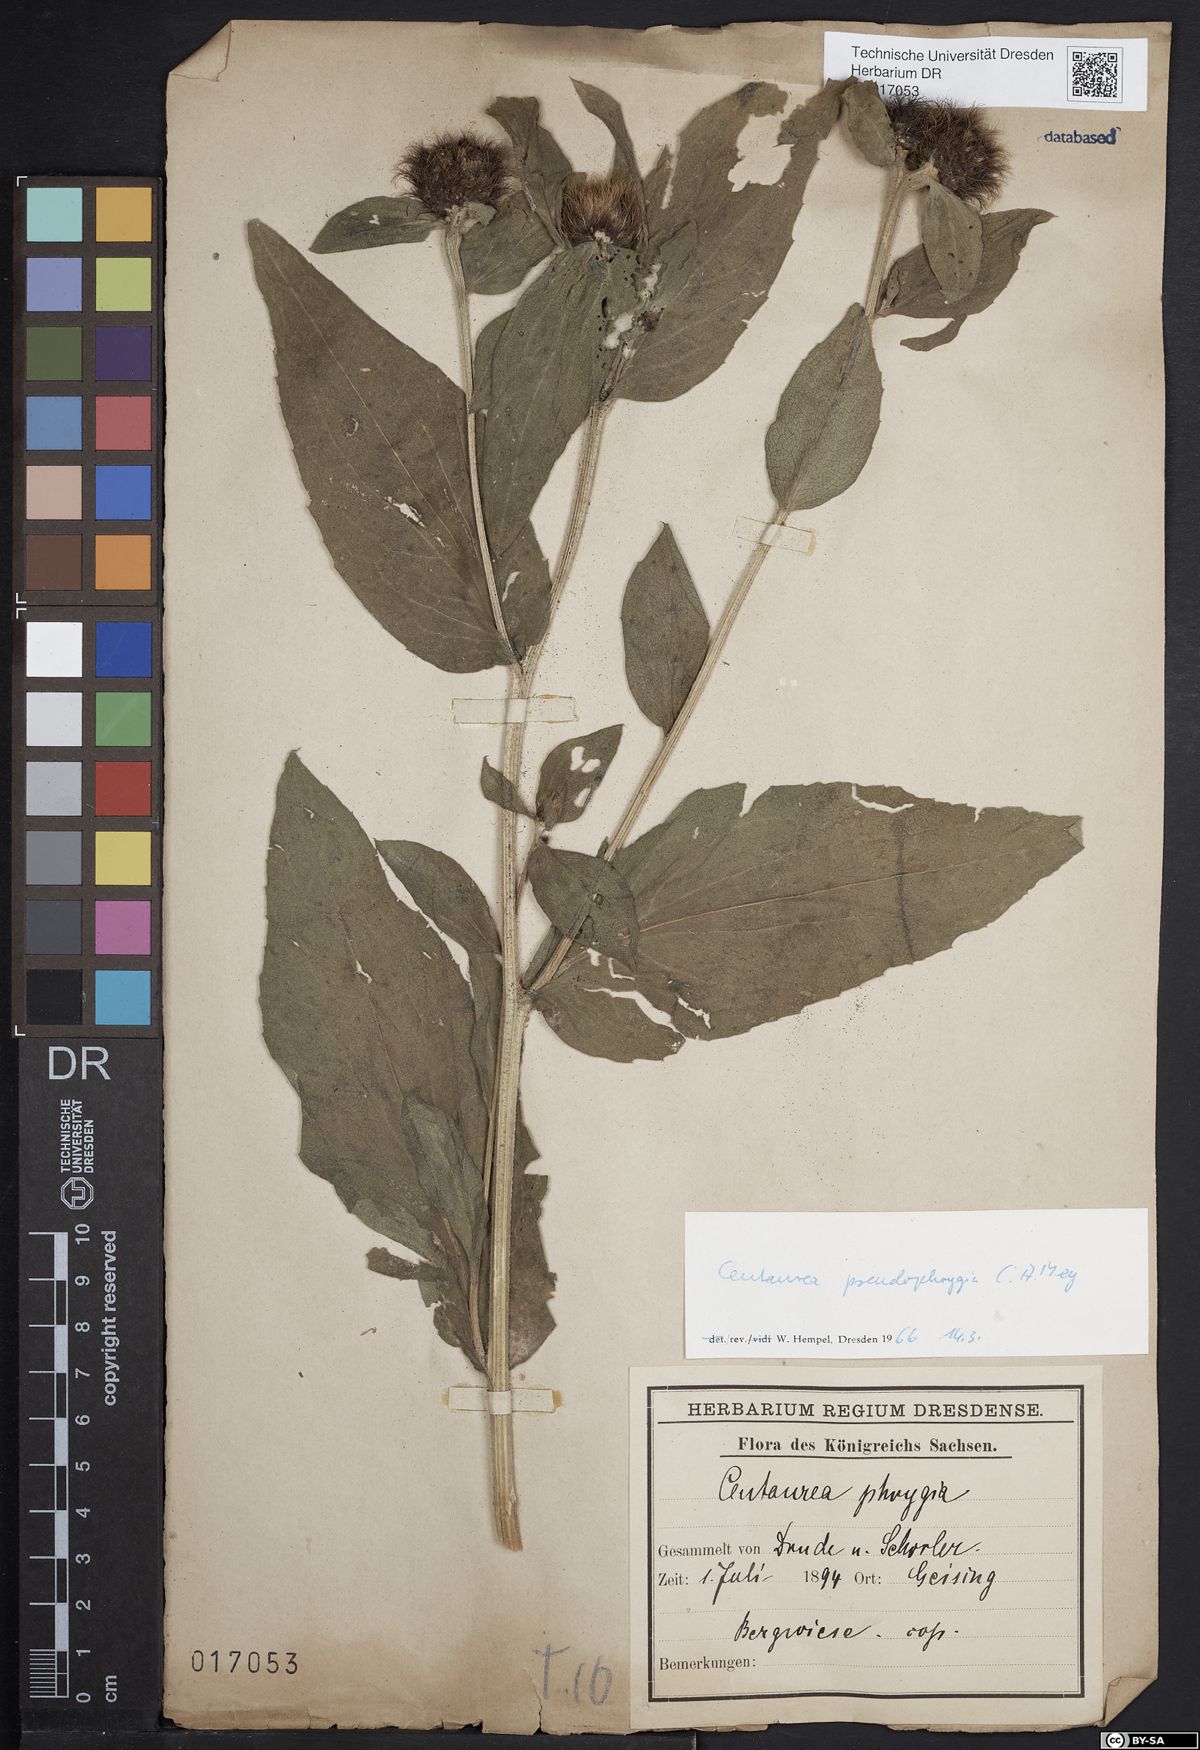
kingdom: Plantae
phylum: Tracheophyta
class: Magnoliopsida
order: Asterales
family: Asteraceae
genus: Centaurea
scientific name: Centaurea pseudophrygia
